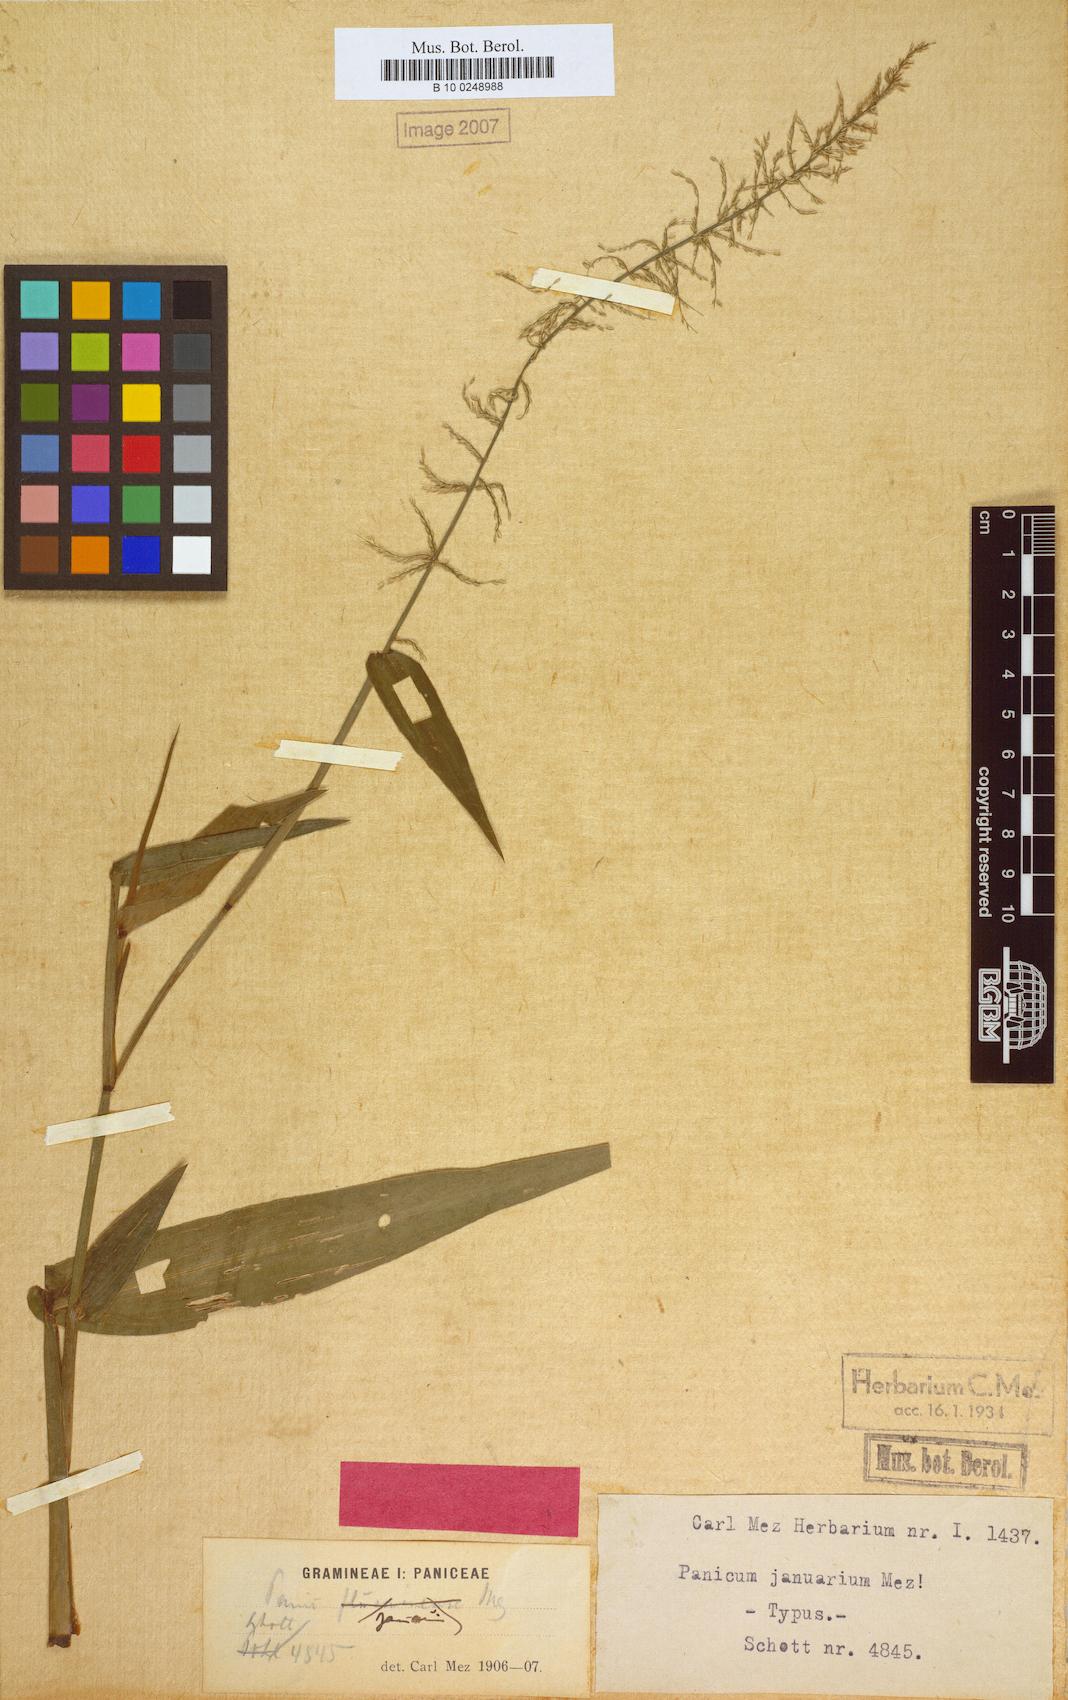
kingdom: Plantae
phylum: Tracheophyta
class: Liliopsida
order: Poales
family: Poaceae
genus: Hymenachne
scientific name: Hymenachne condensata
